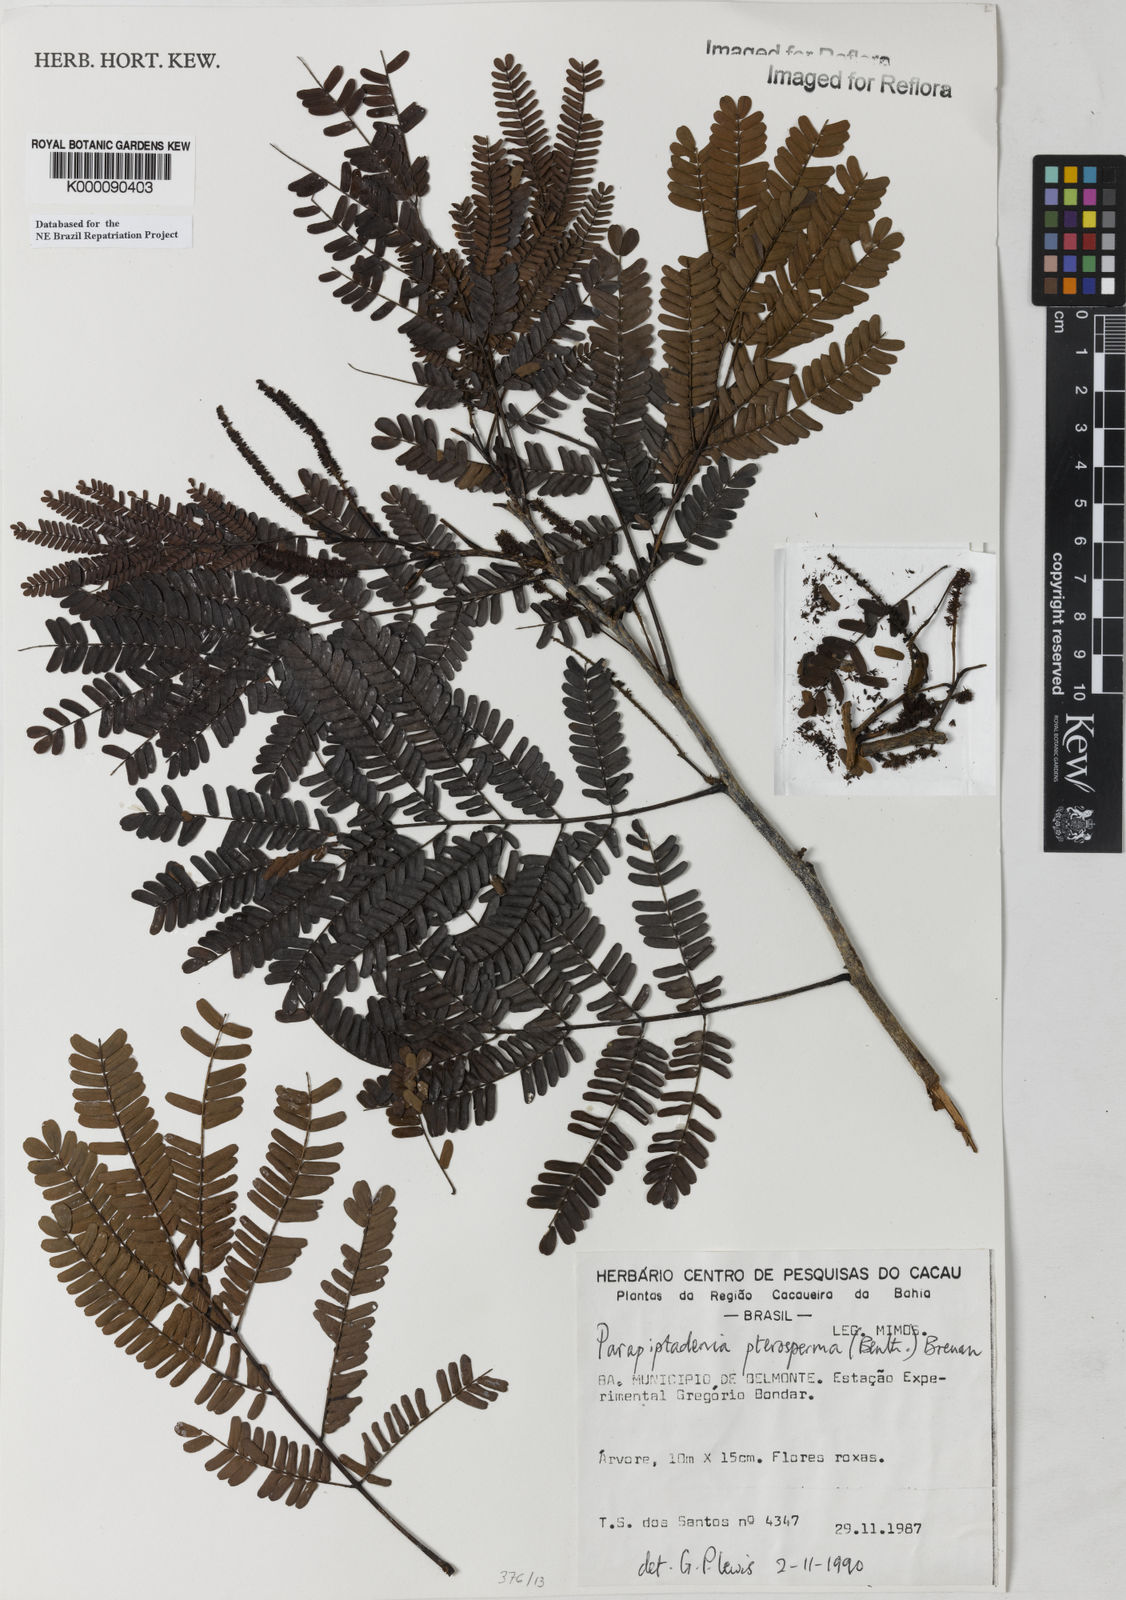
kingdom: Plantae
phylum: Tracheophyta
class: Magnoliopsida
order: Fabales
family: Fabaceae
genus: Parapiptadenia
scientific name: Parapiptadenia pterosperma
